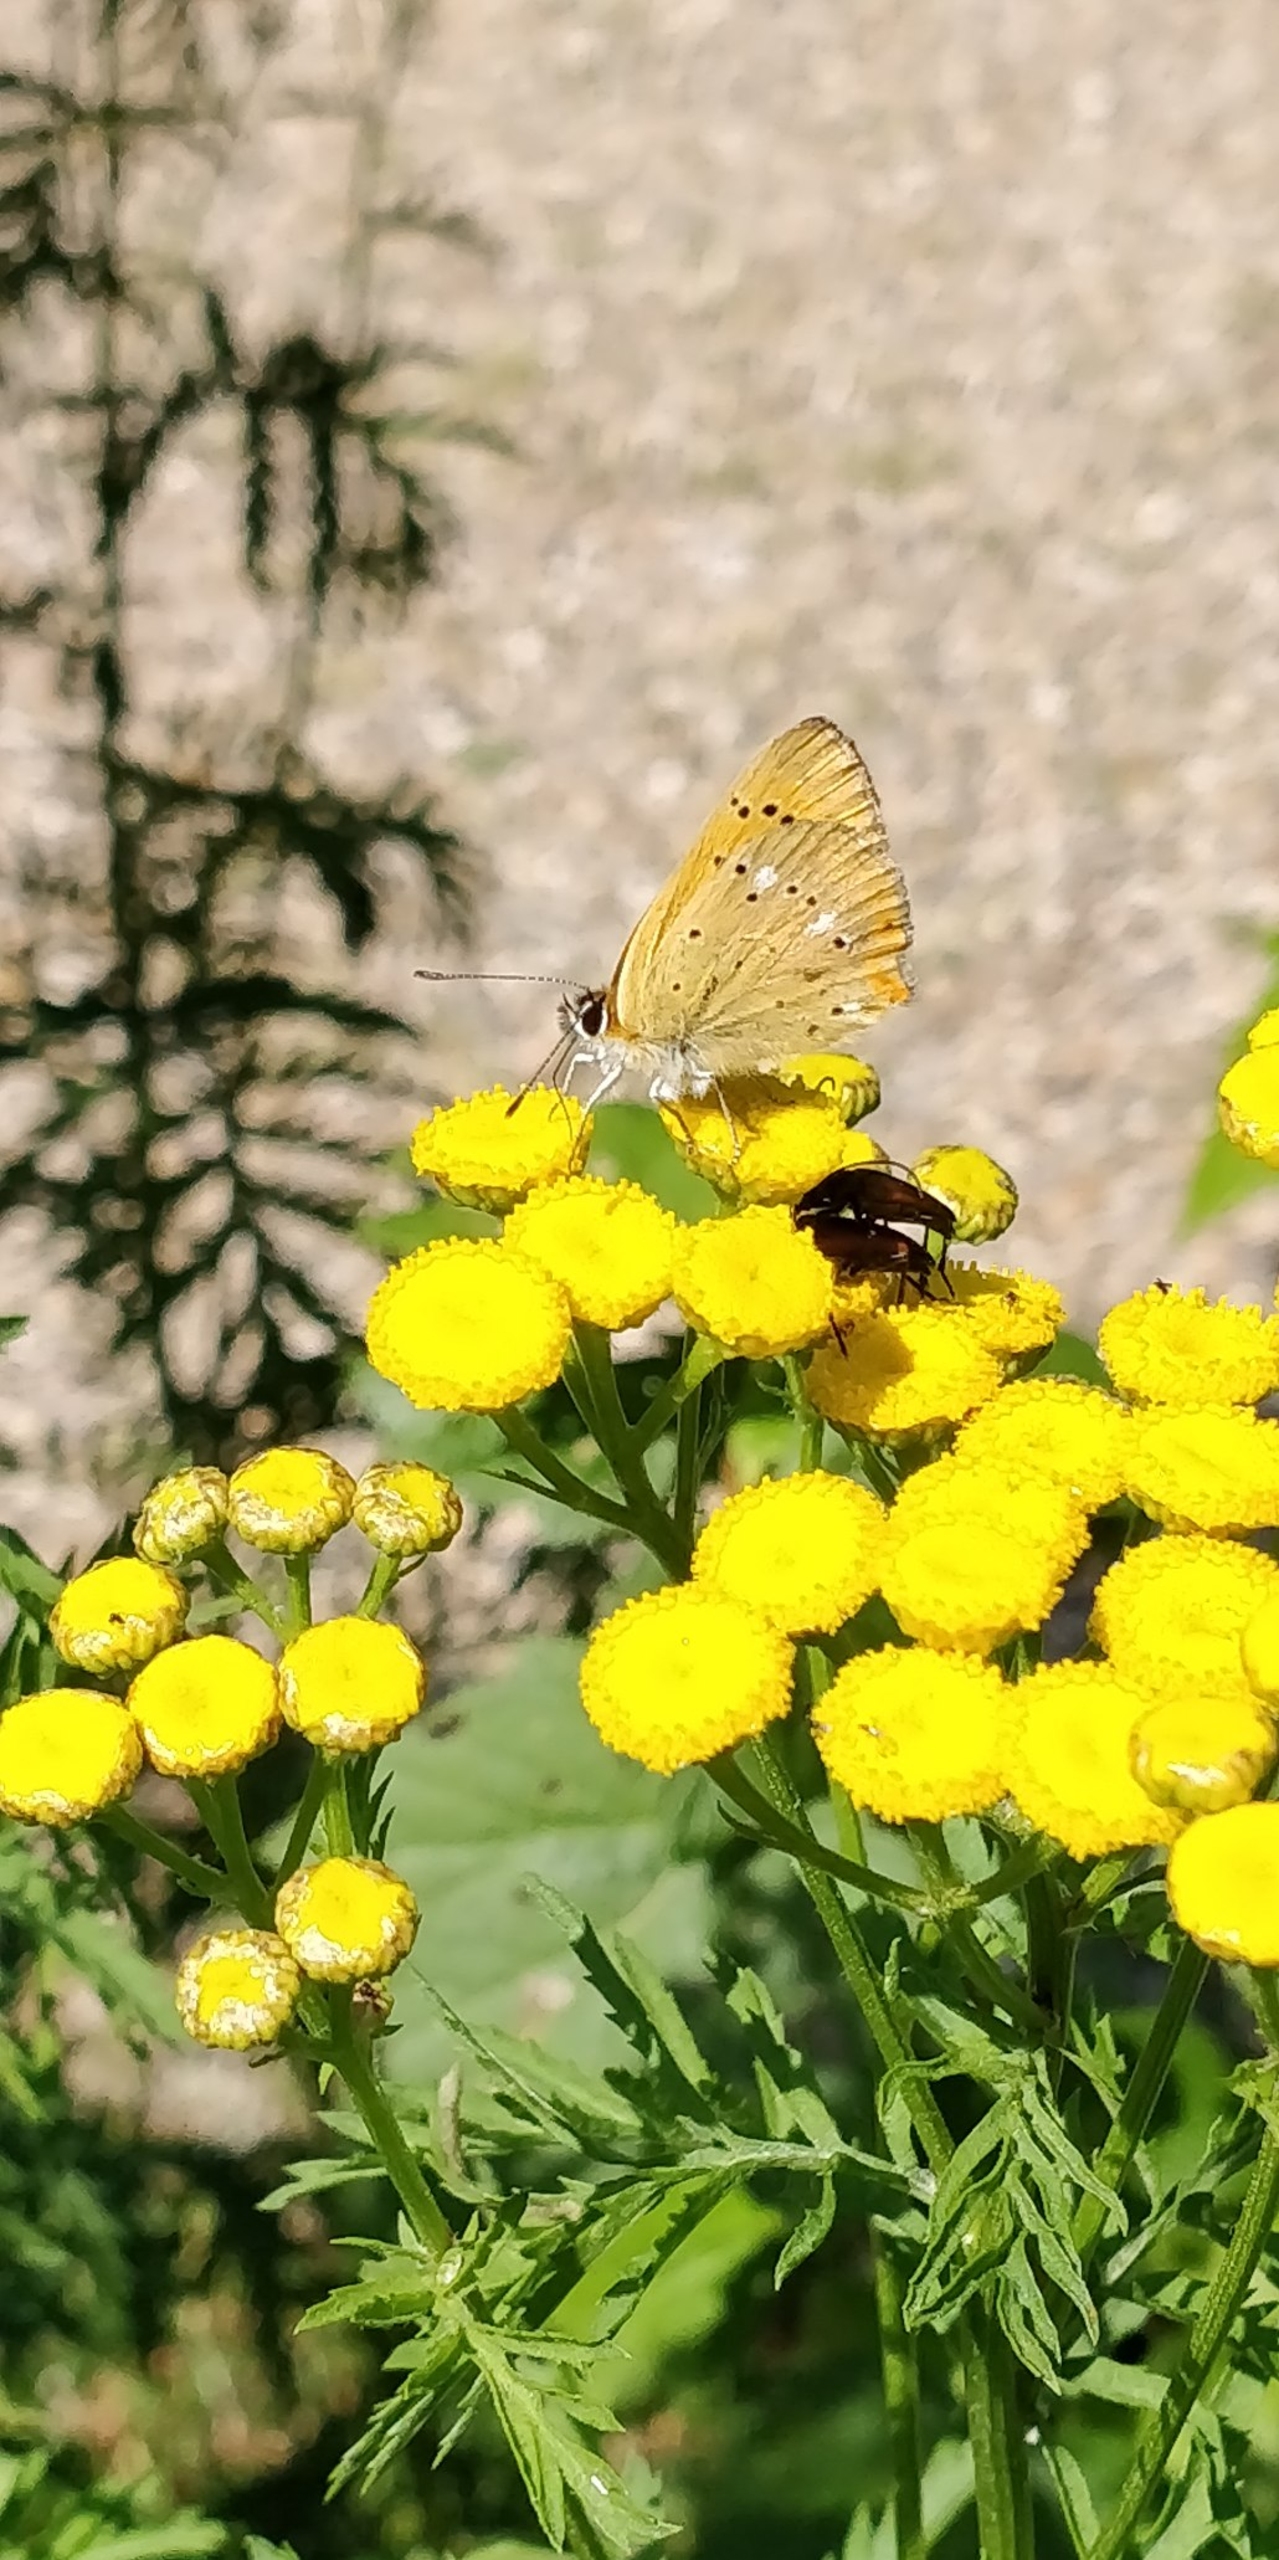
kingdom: Animalia
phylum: Arthropoda
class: Insecta
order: Lepidoptera
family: Lycaenidae
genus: Lycaena
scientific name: Lycaena virgaureae
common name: Dukatsommerfugl
